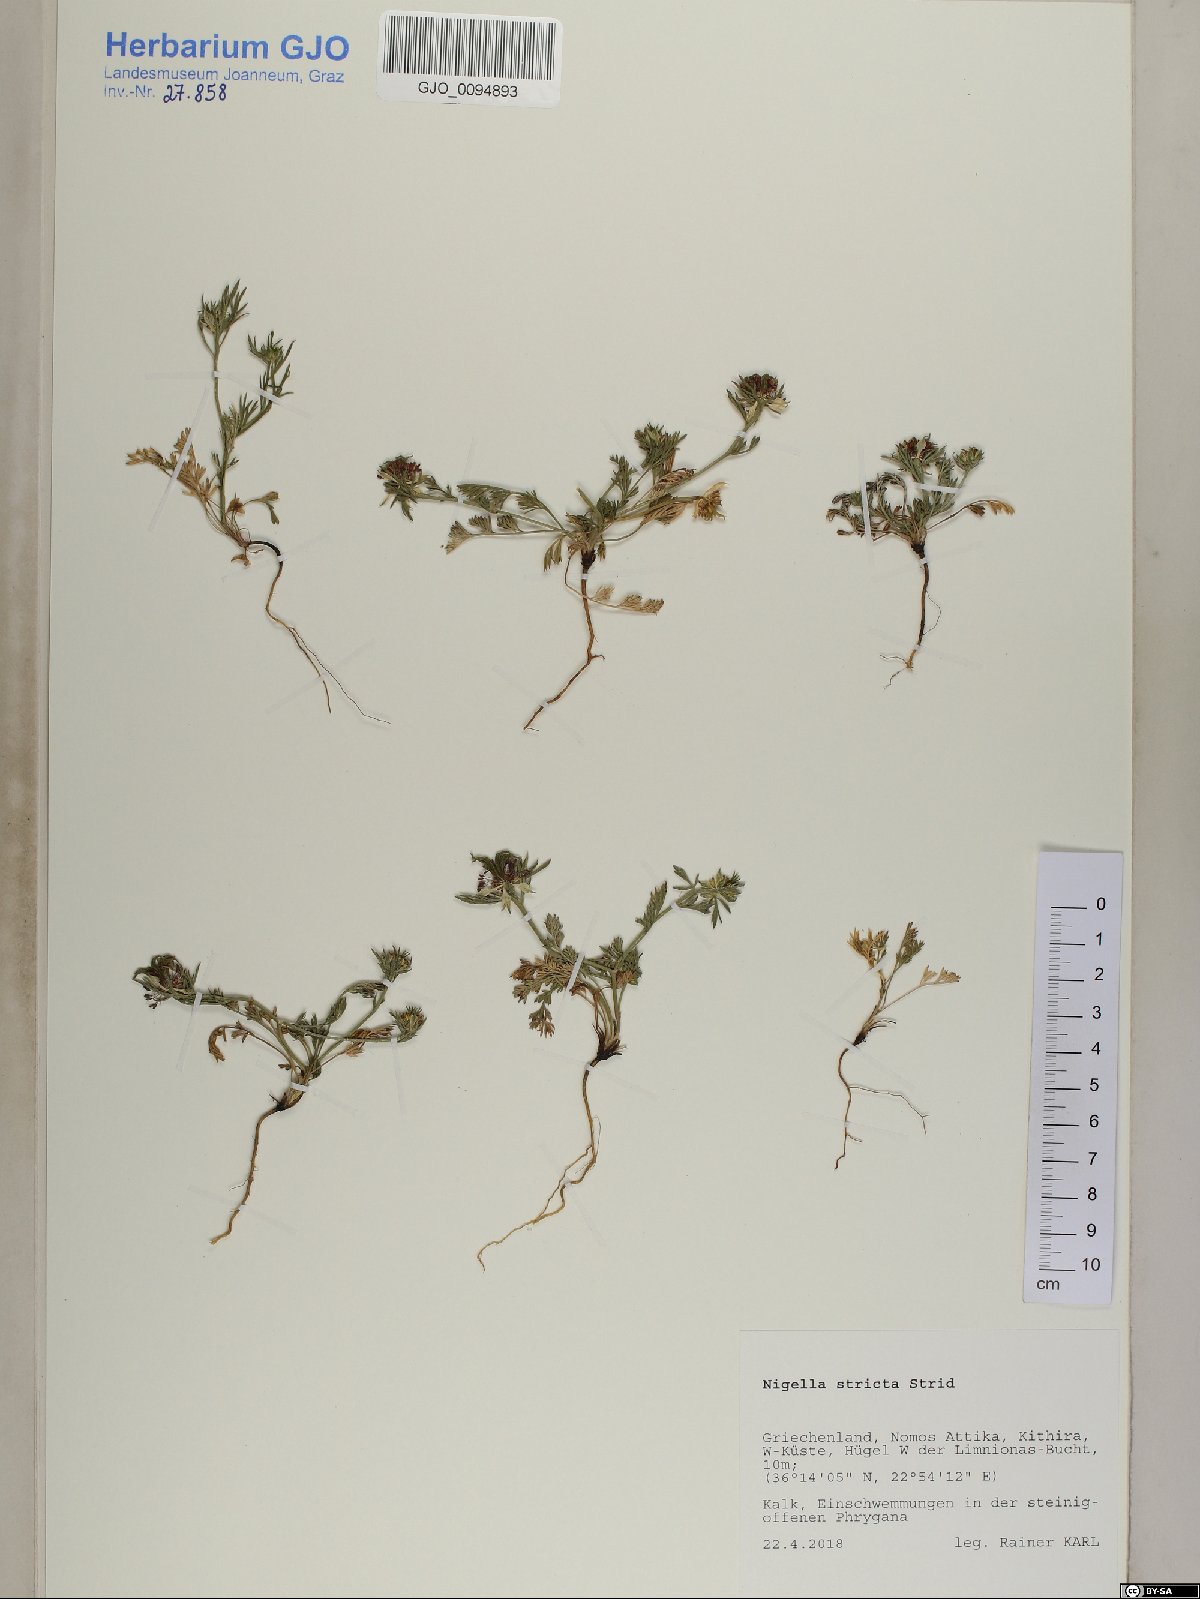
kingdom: Plantae
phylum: Tracheophyta
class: Magnoliopsida
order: Ranunculales
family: Ranunculaceae
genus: Nigella
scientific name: Nigella stricta
